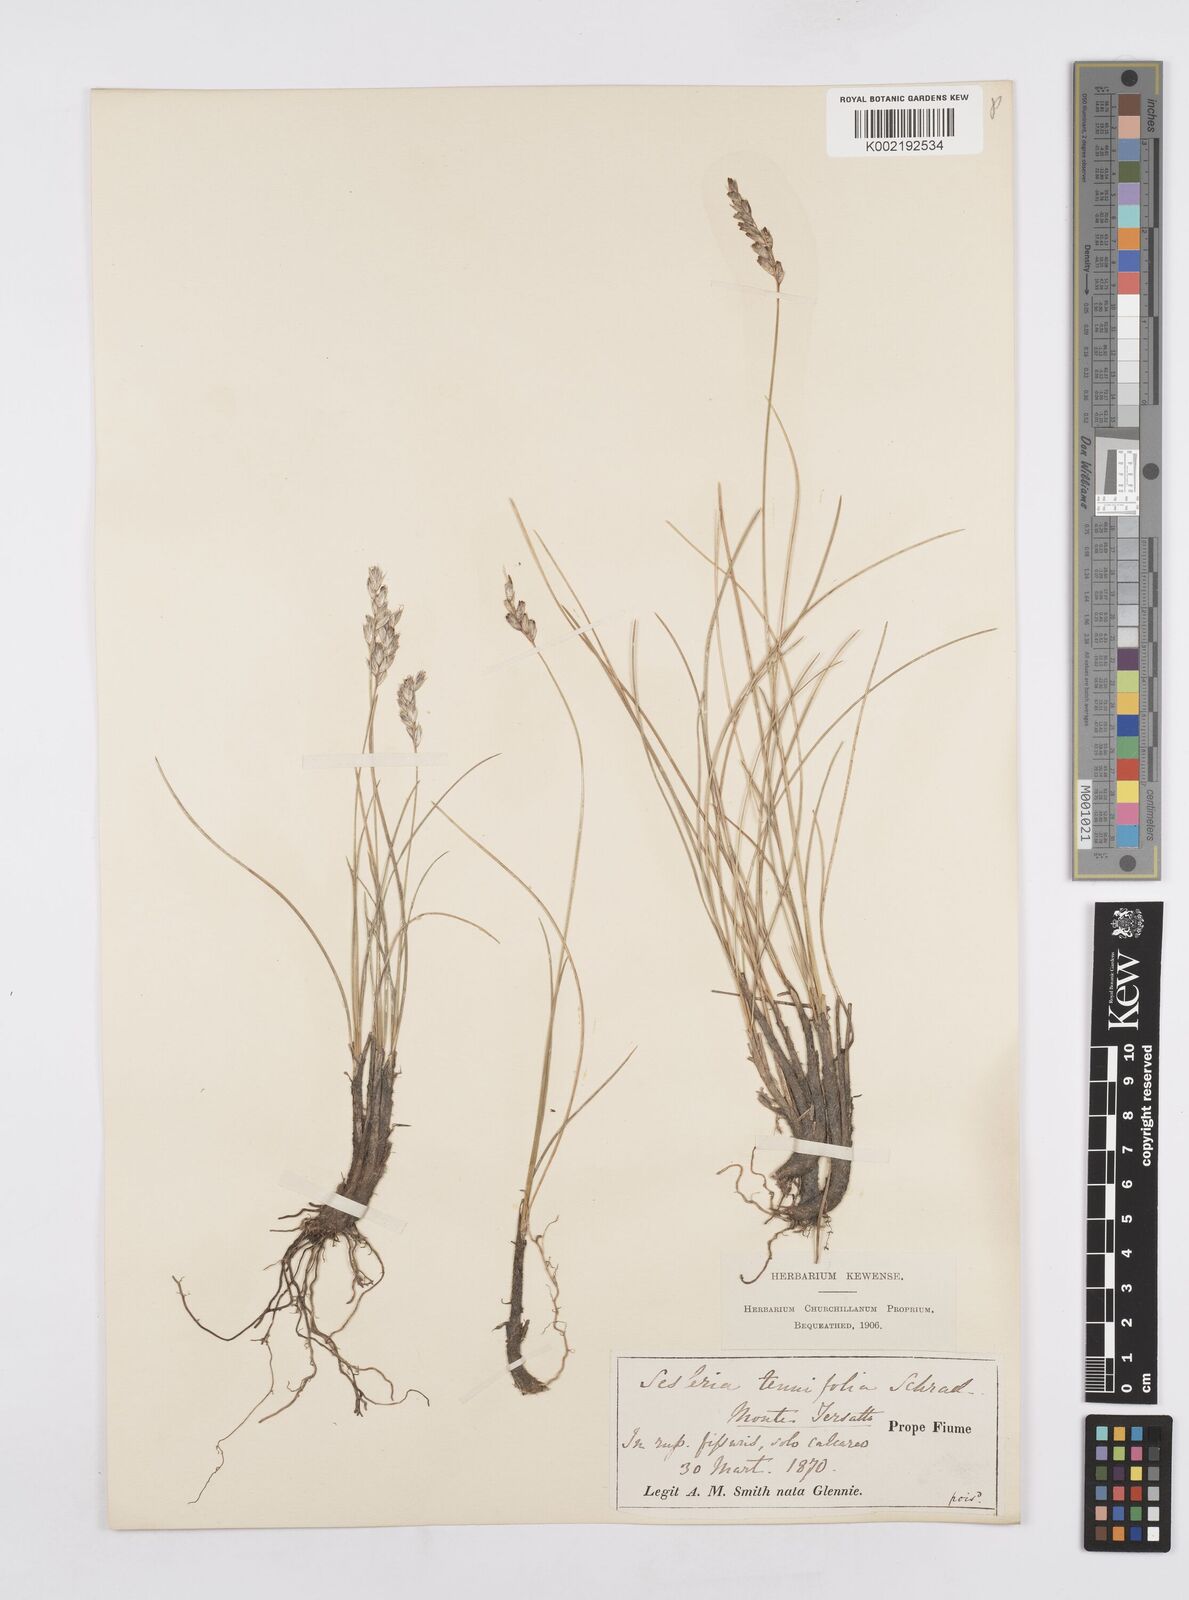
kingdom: Plantae
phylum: Tracheophyta
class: Liliopsida
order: Poales
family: Poaceae
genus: Sesleria
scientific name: Sesleria juncifolia
